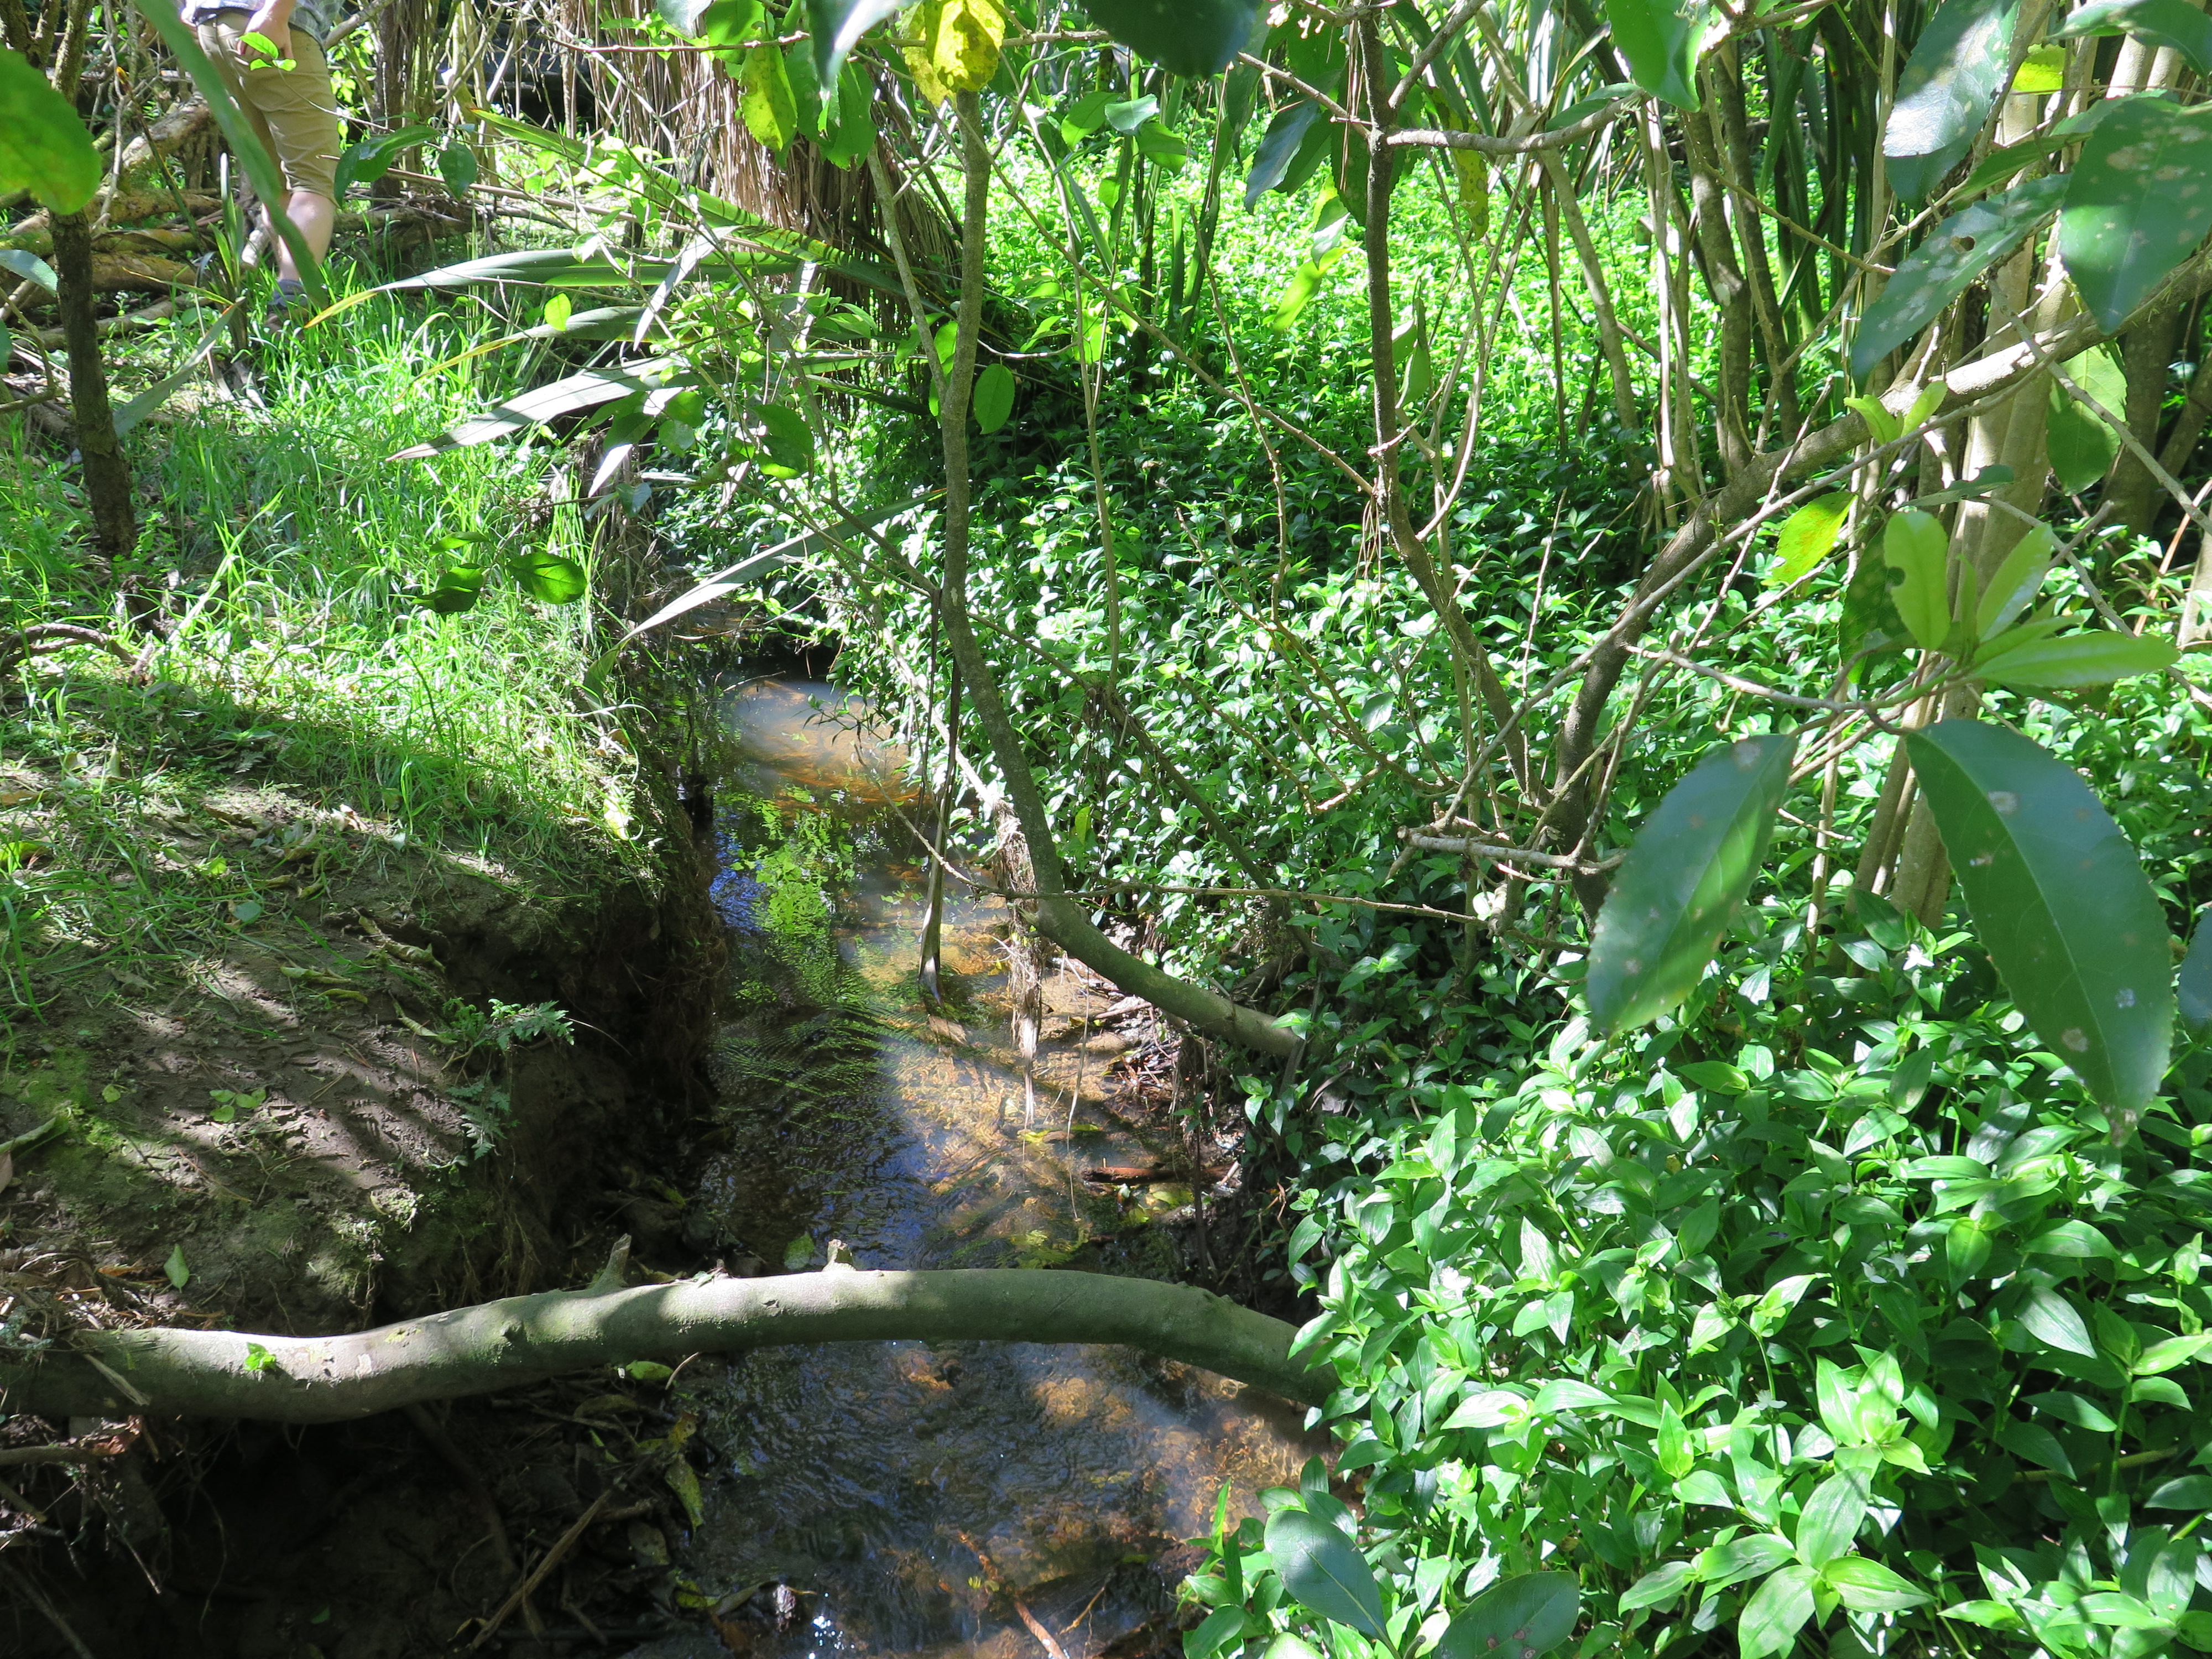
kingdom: Animalia
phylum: Arthropoda
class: Insecta
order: Trichoptera
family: Leptoceridae
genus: Triplectides
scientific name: Triplectides
